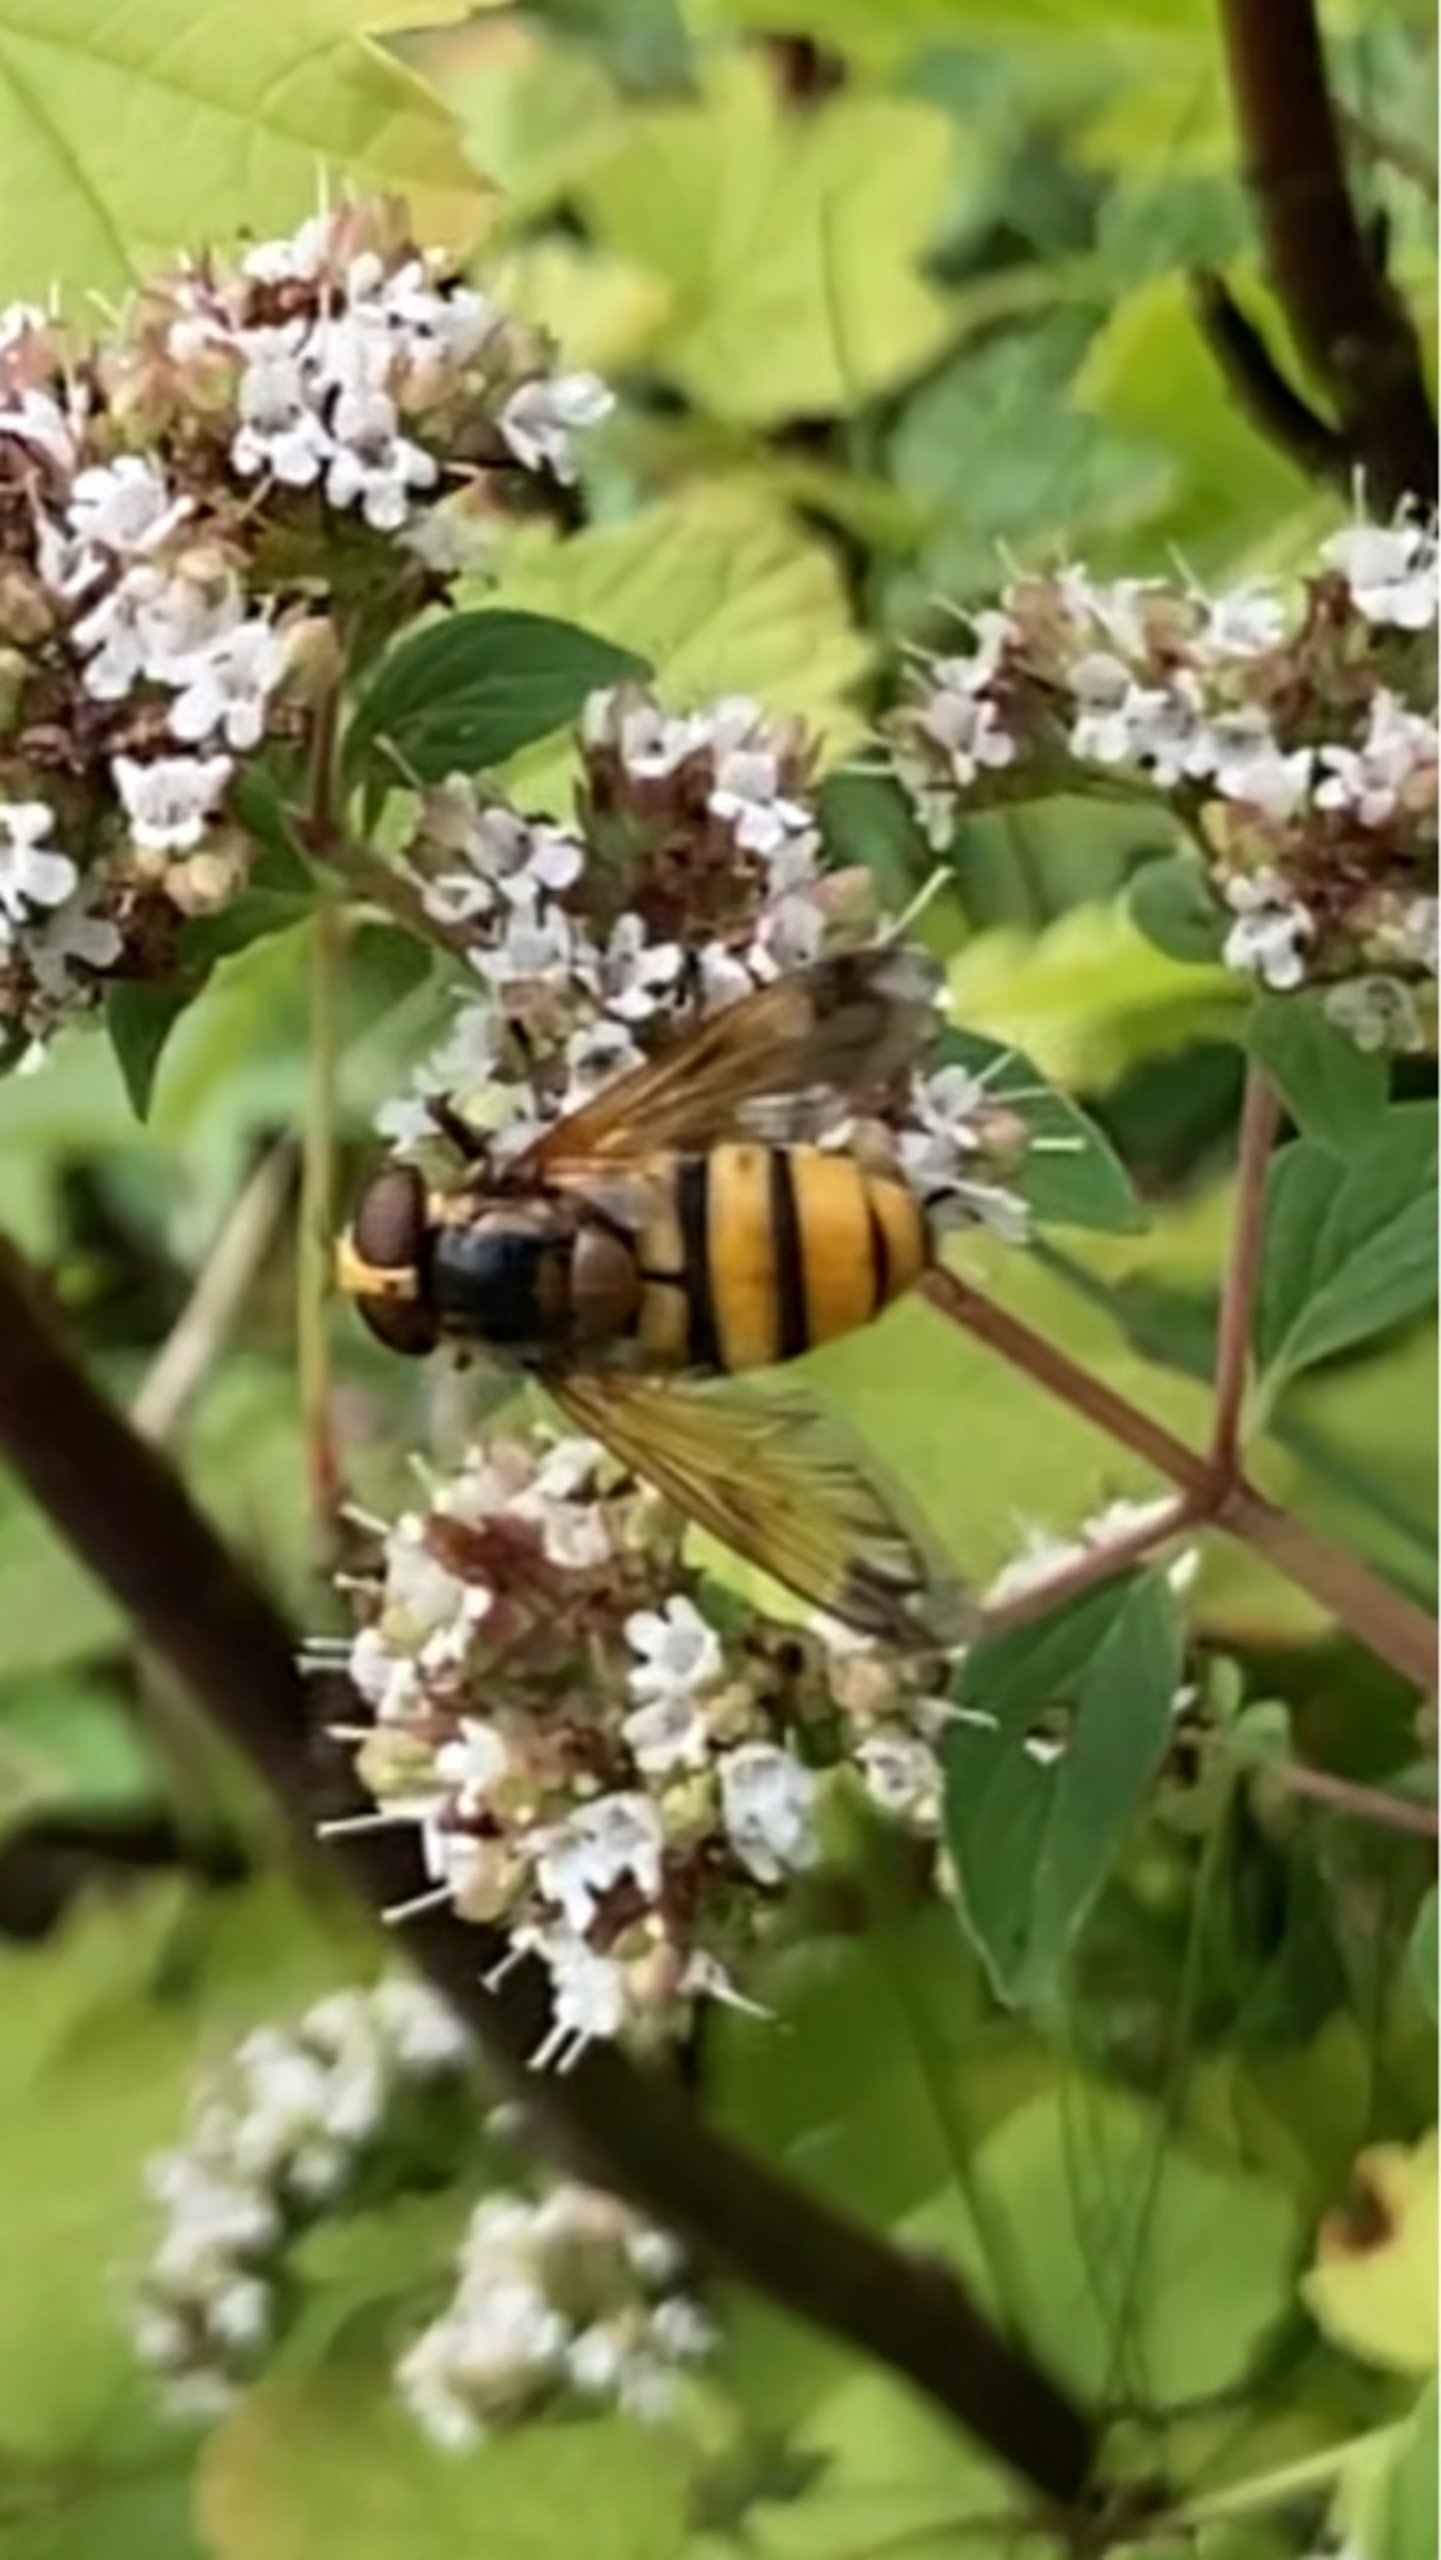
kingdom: Animalia
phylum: Arthropoda
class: Insecta
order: Diptera
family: Syrphidae
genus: Volucella
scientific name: Volucella inanis
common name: Gul humlesvirreflue
